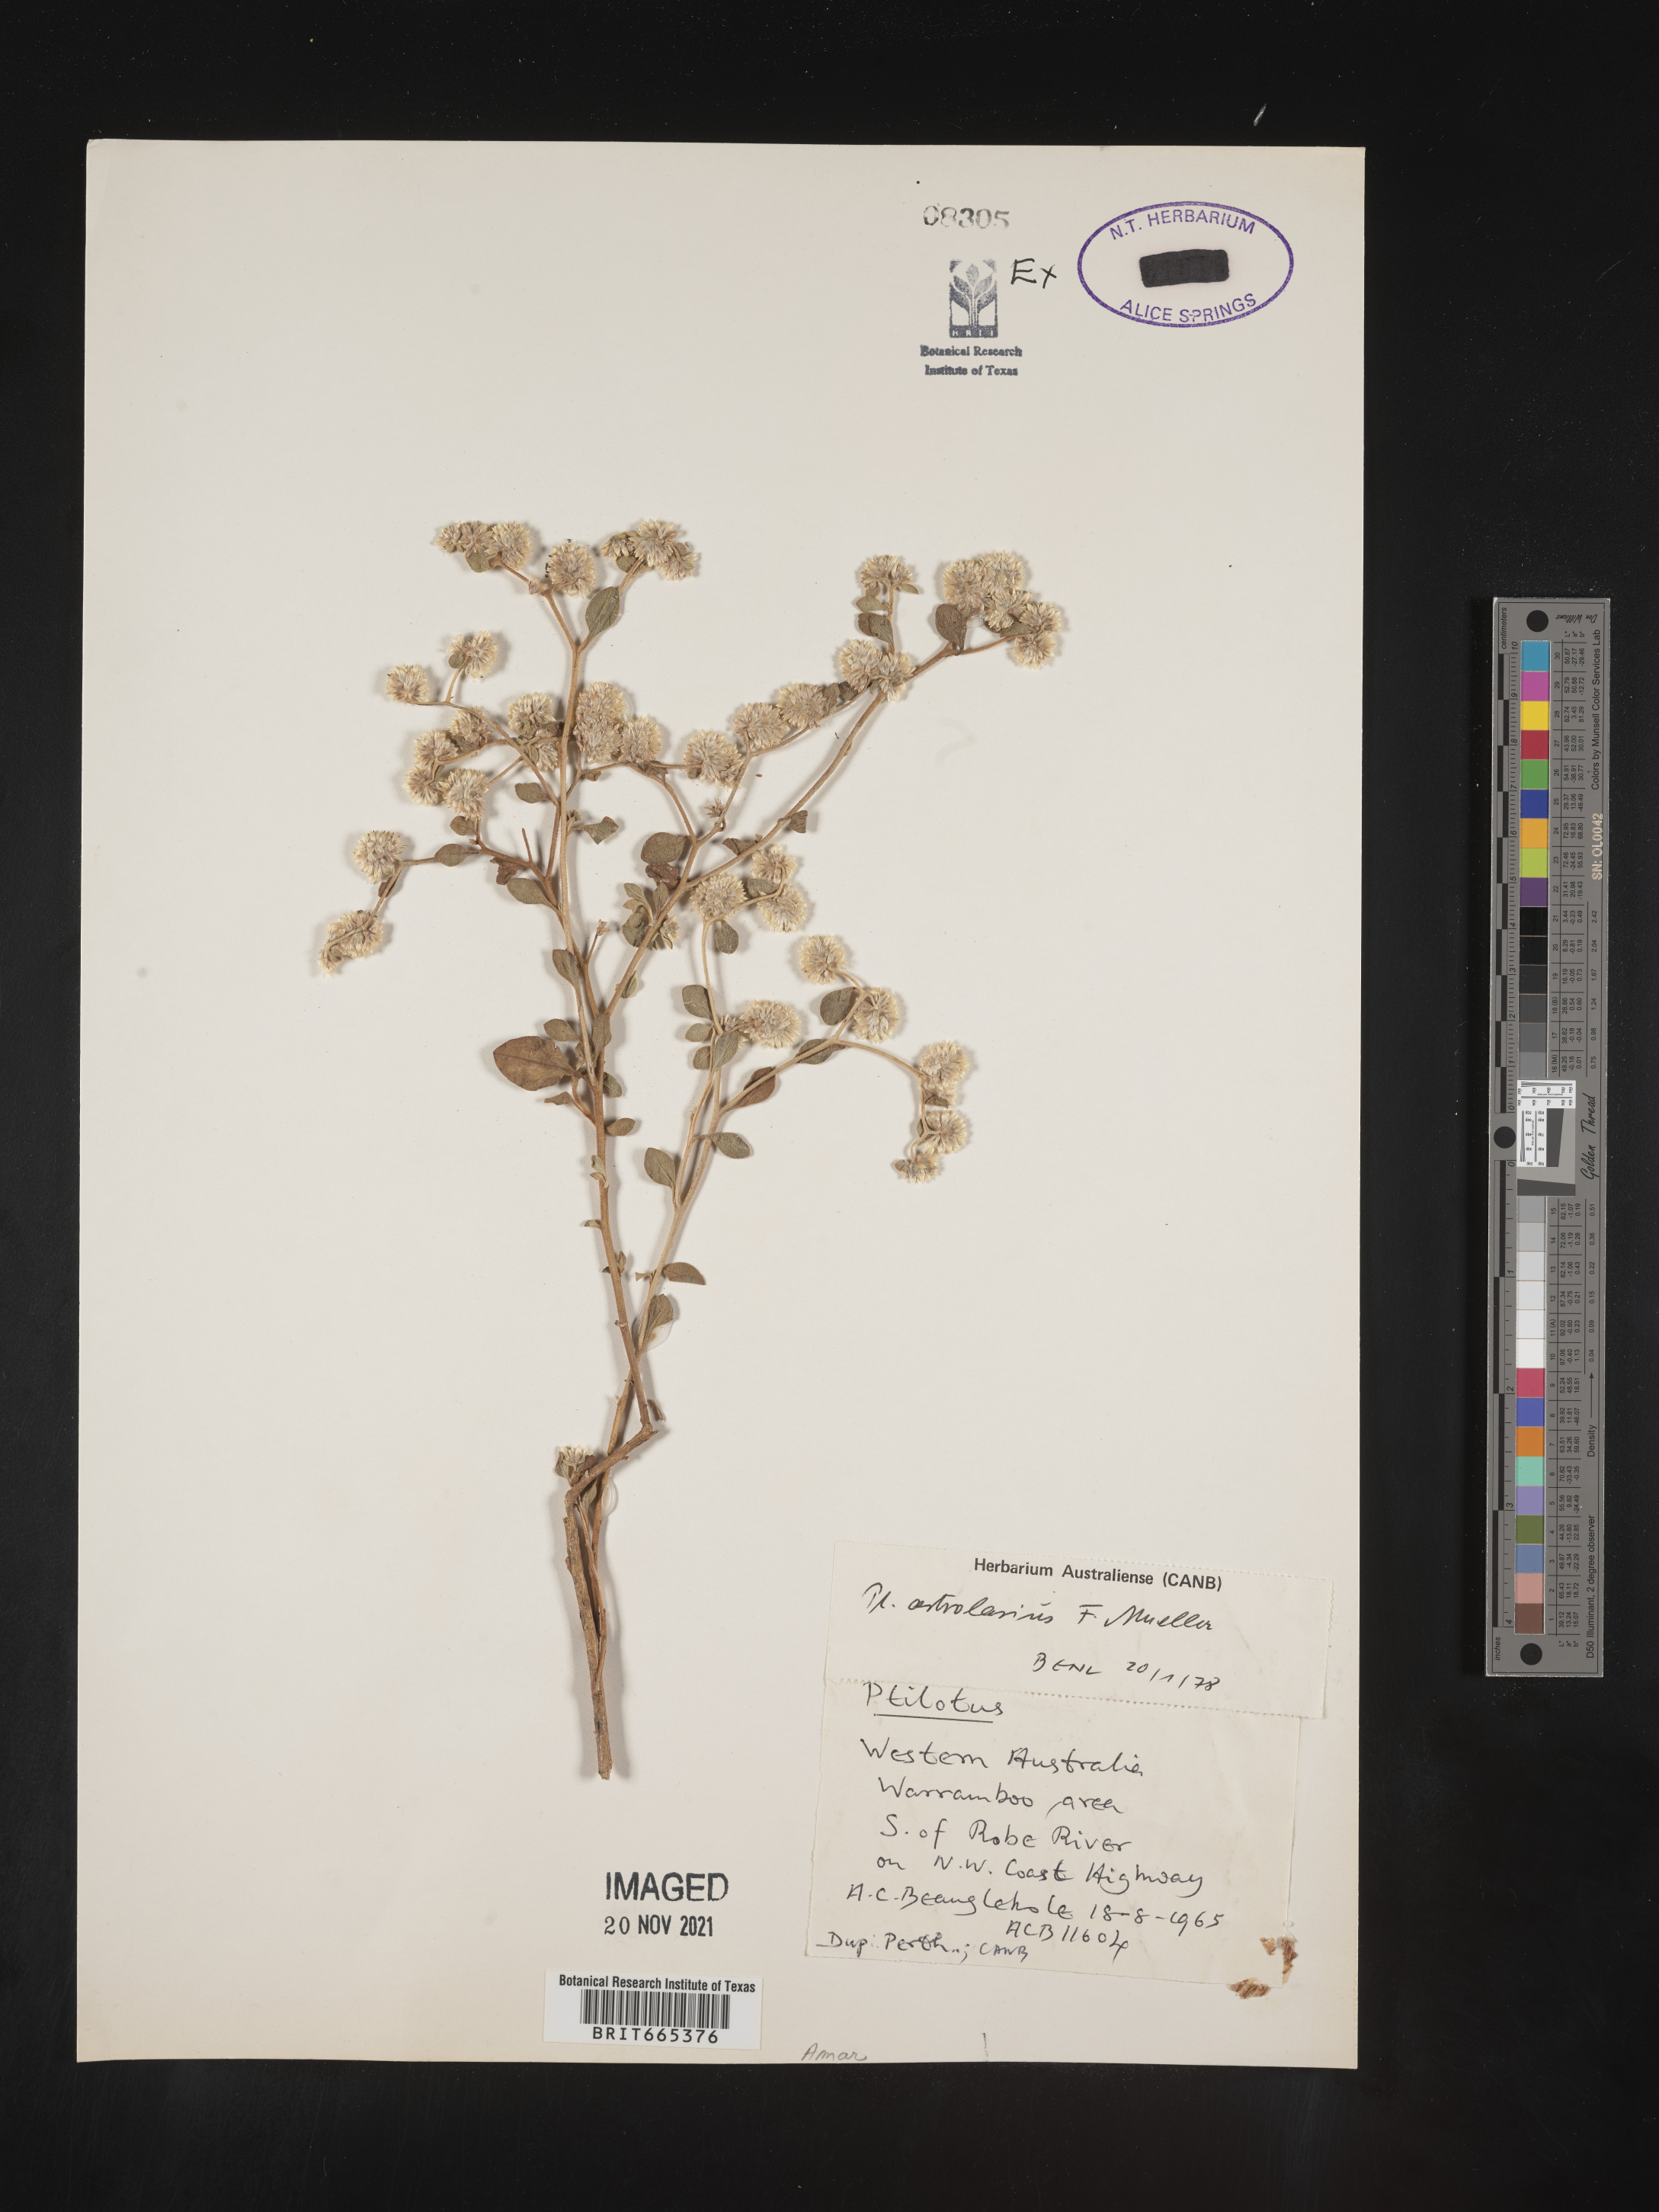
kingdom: Plantae
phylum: Tracheophyta
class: Magnoliopsida
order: Caryophyllales
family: Amaranthaceae
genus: Ptilotus
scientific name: Ptilotus
